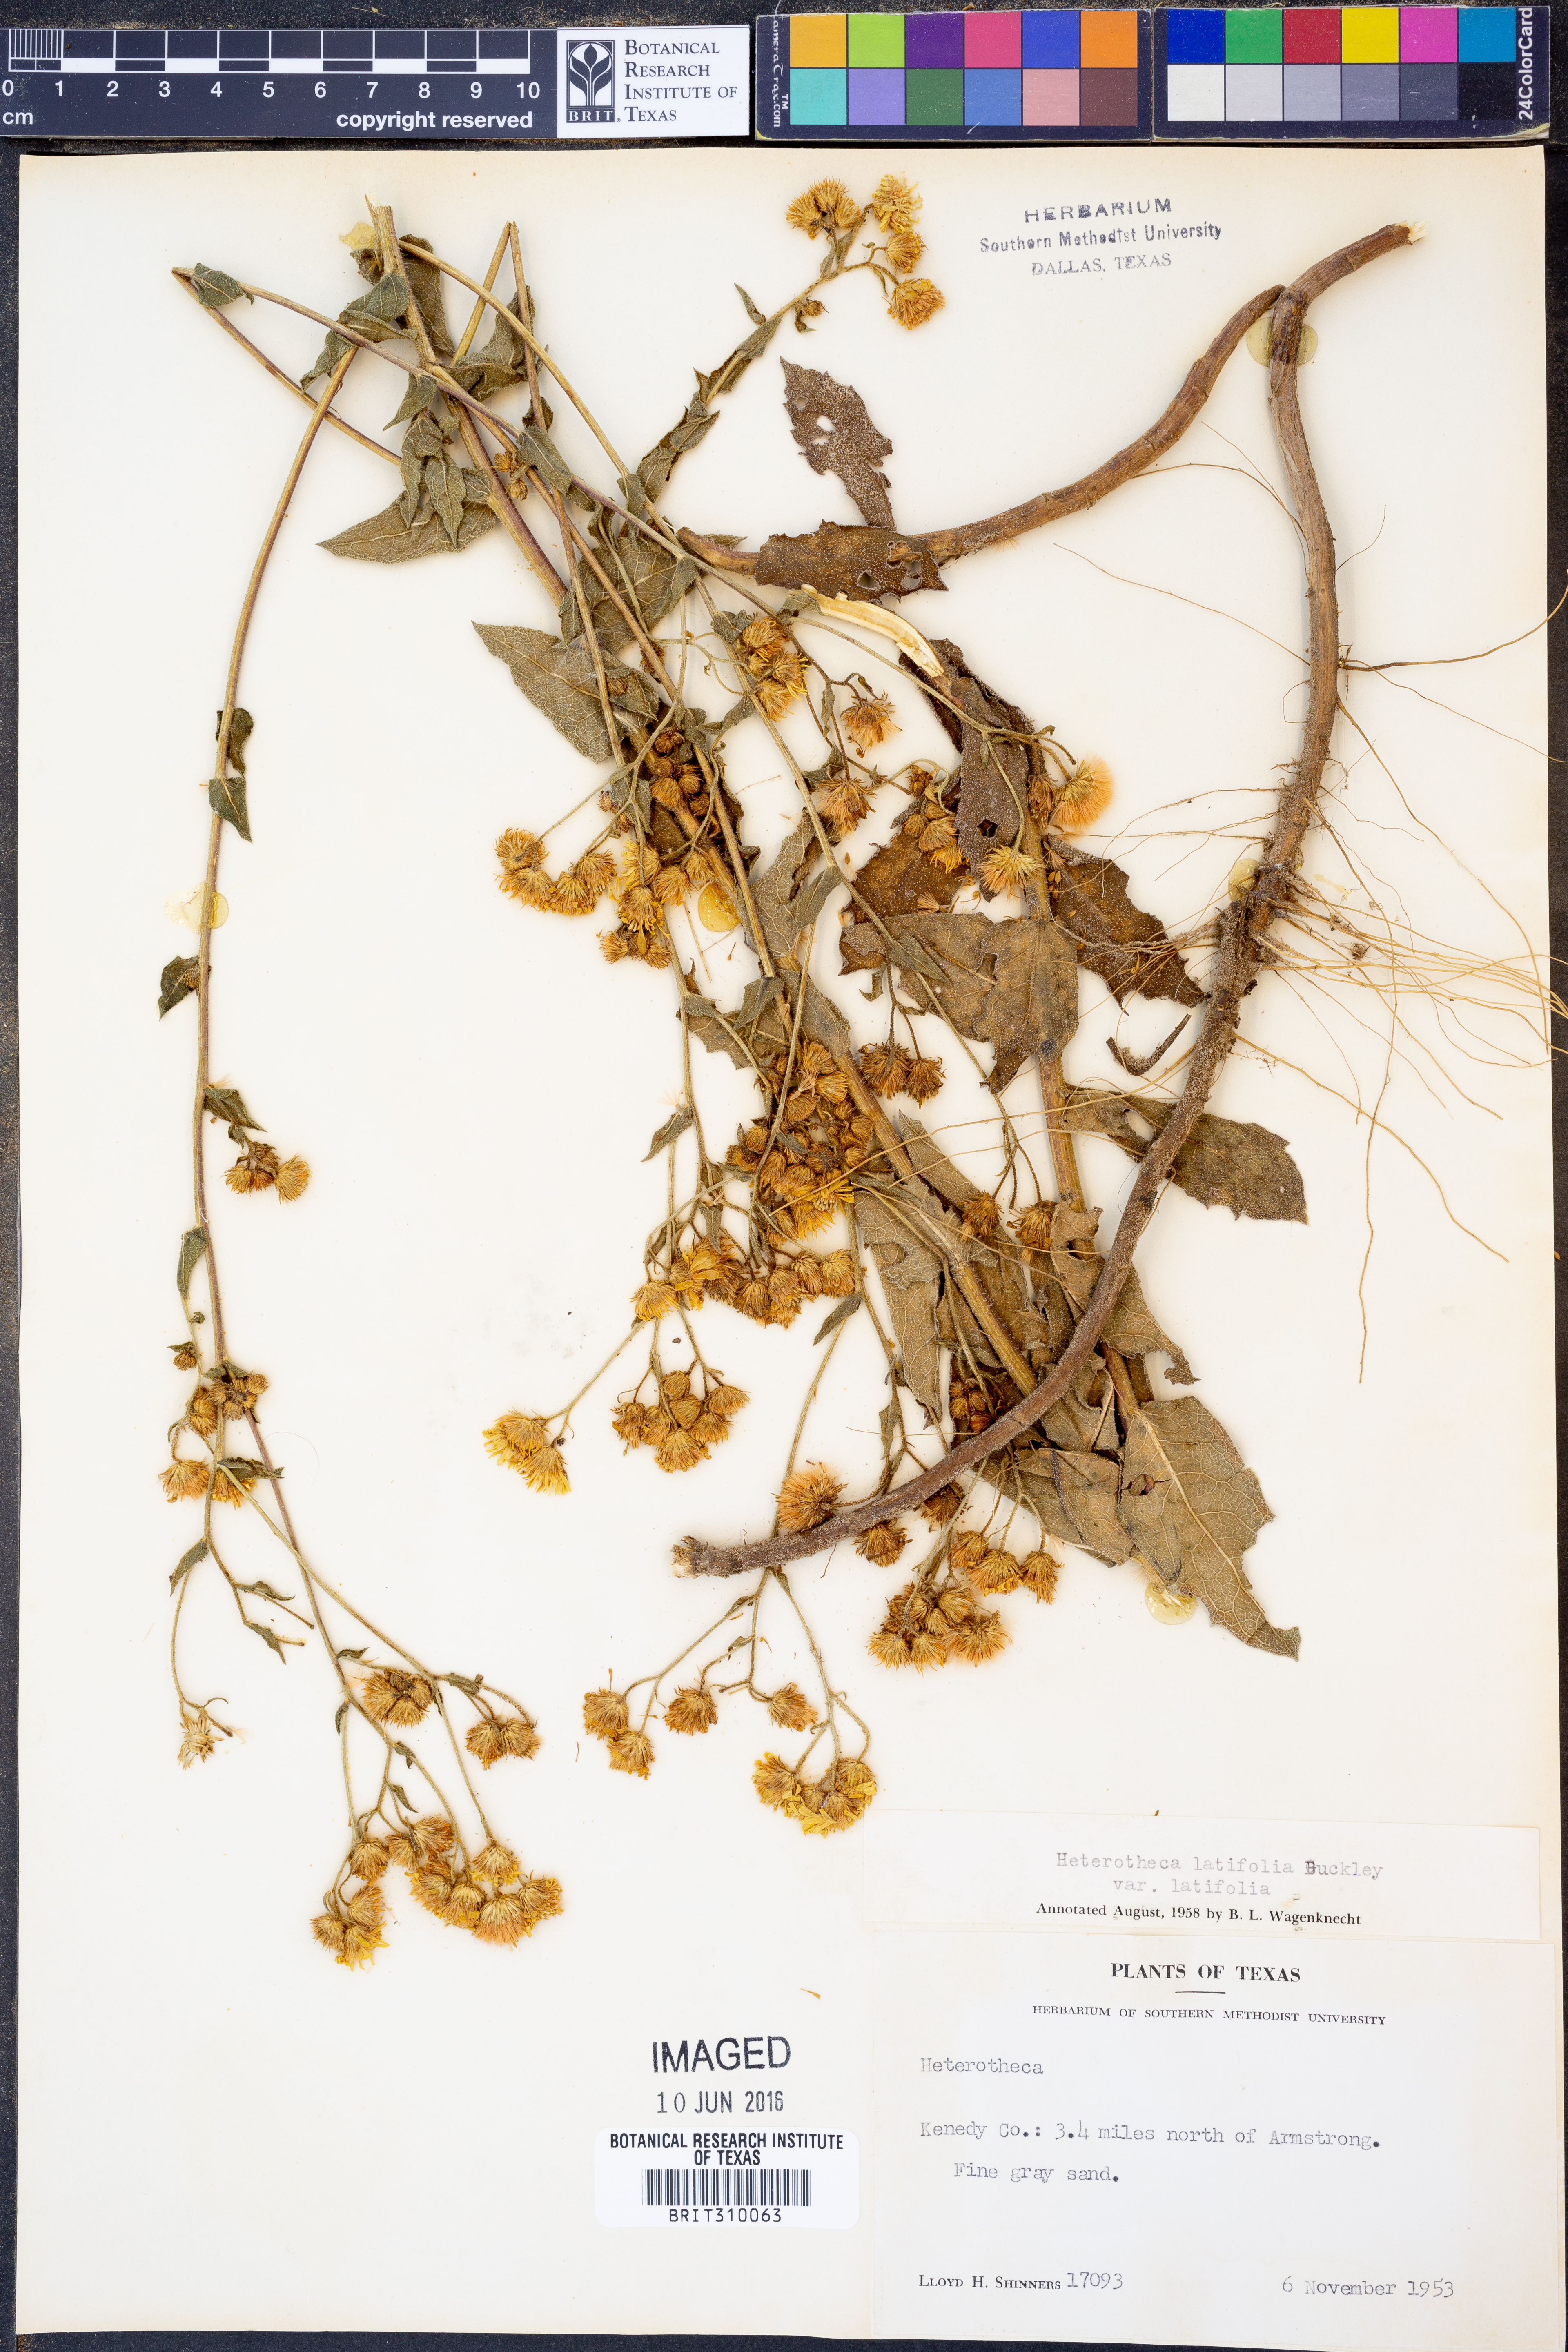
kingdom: Plantae
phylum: Tracheophyta
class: Magnoliopsida
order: Asterales
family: Asteraceae
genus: Heterotheca
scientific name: Heterotheca subaxillaris
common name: Camphorweed
